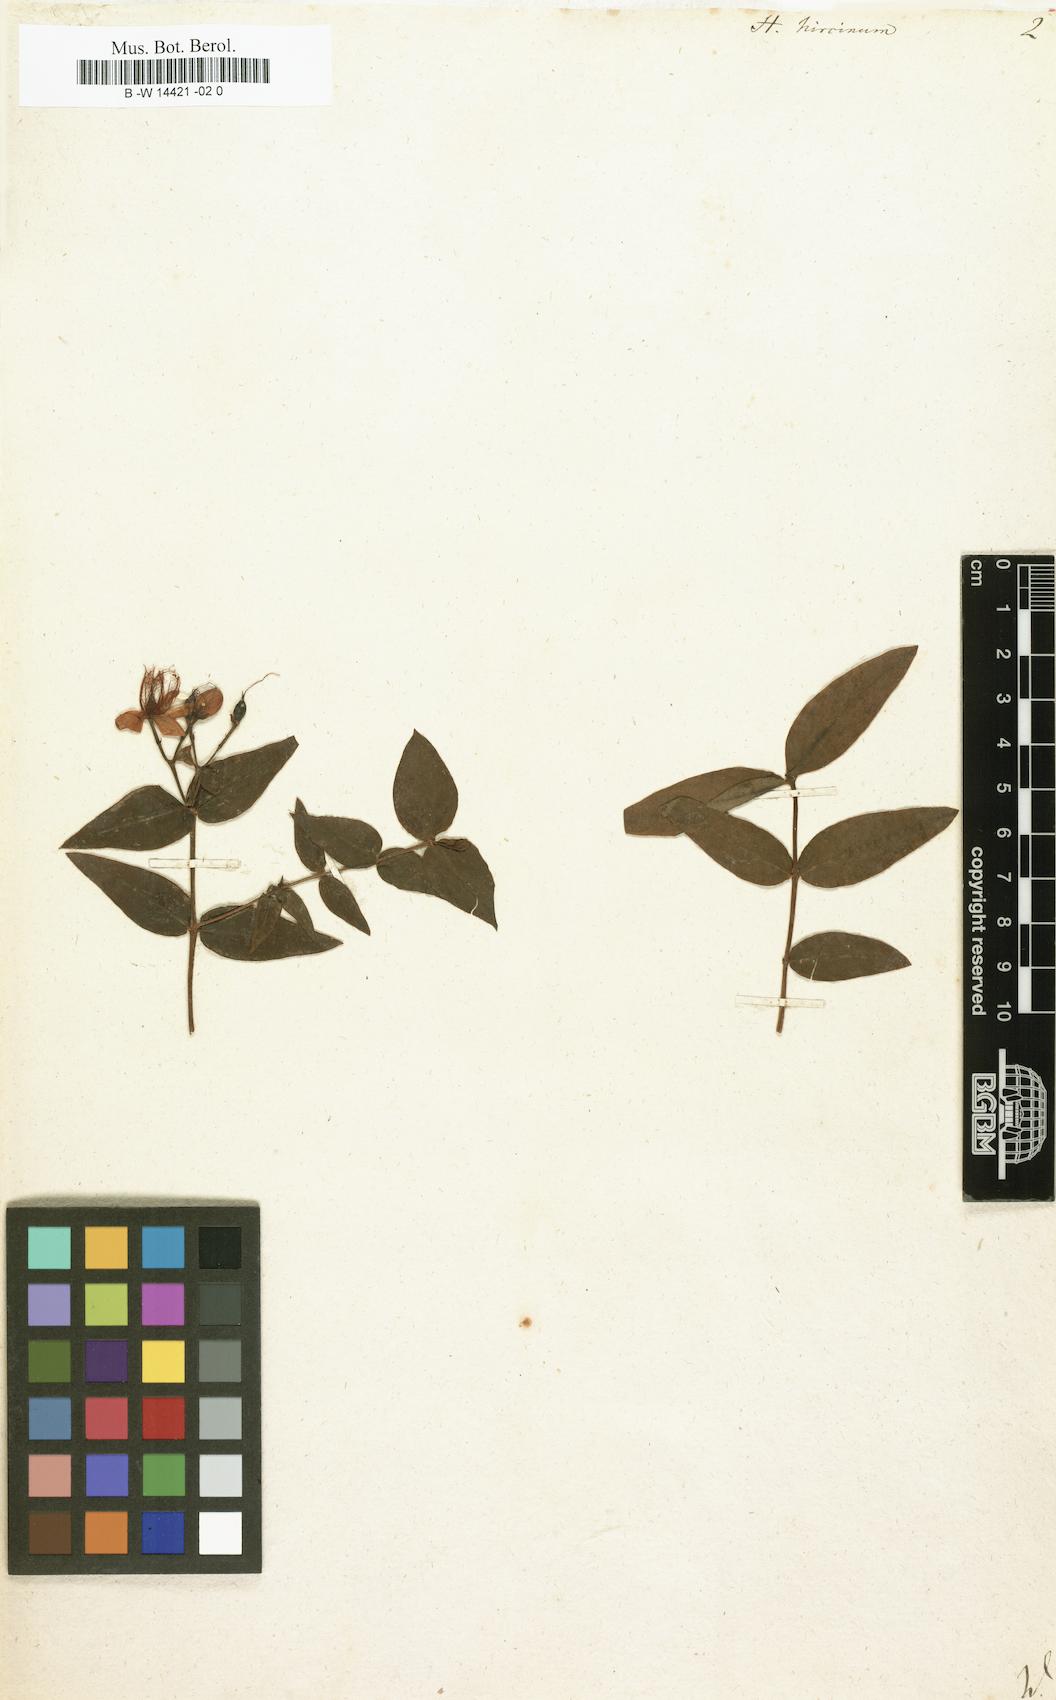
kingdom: Plantae
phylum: Tracheophyta
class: Magnoliopsida
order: Malpighiales
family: Hypericaceae
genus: Hypericum
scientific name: Hypericum hircinum
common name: Stinking tutsan
